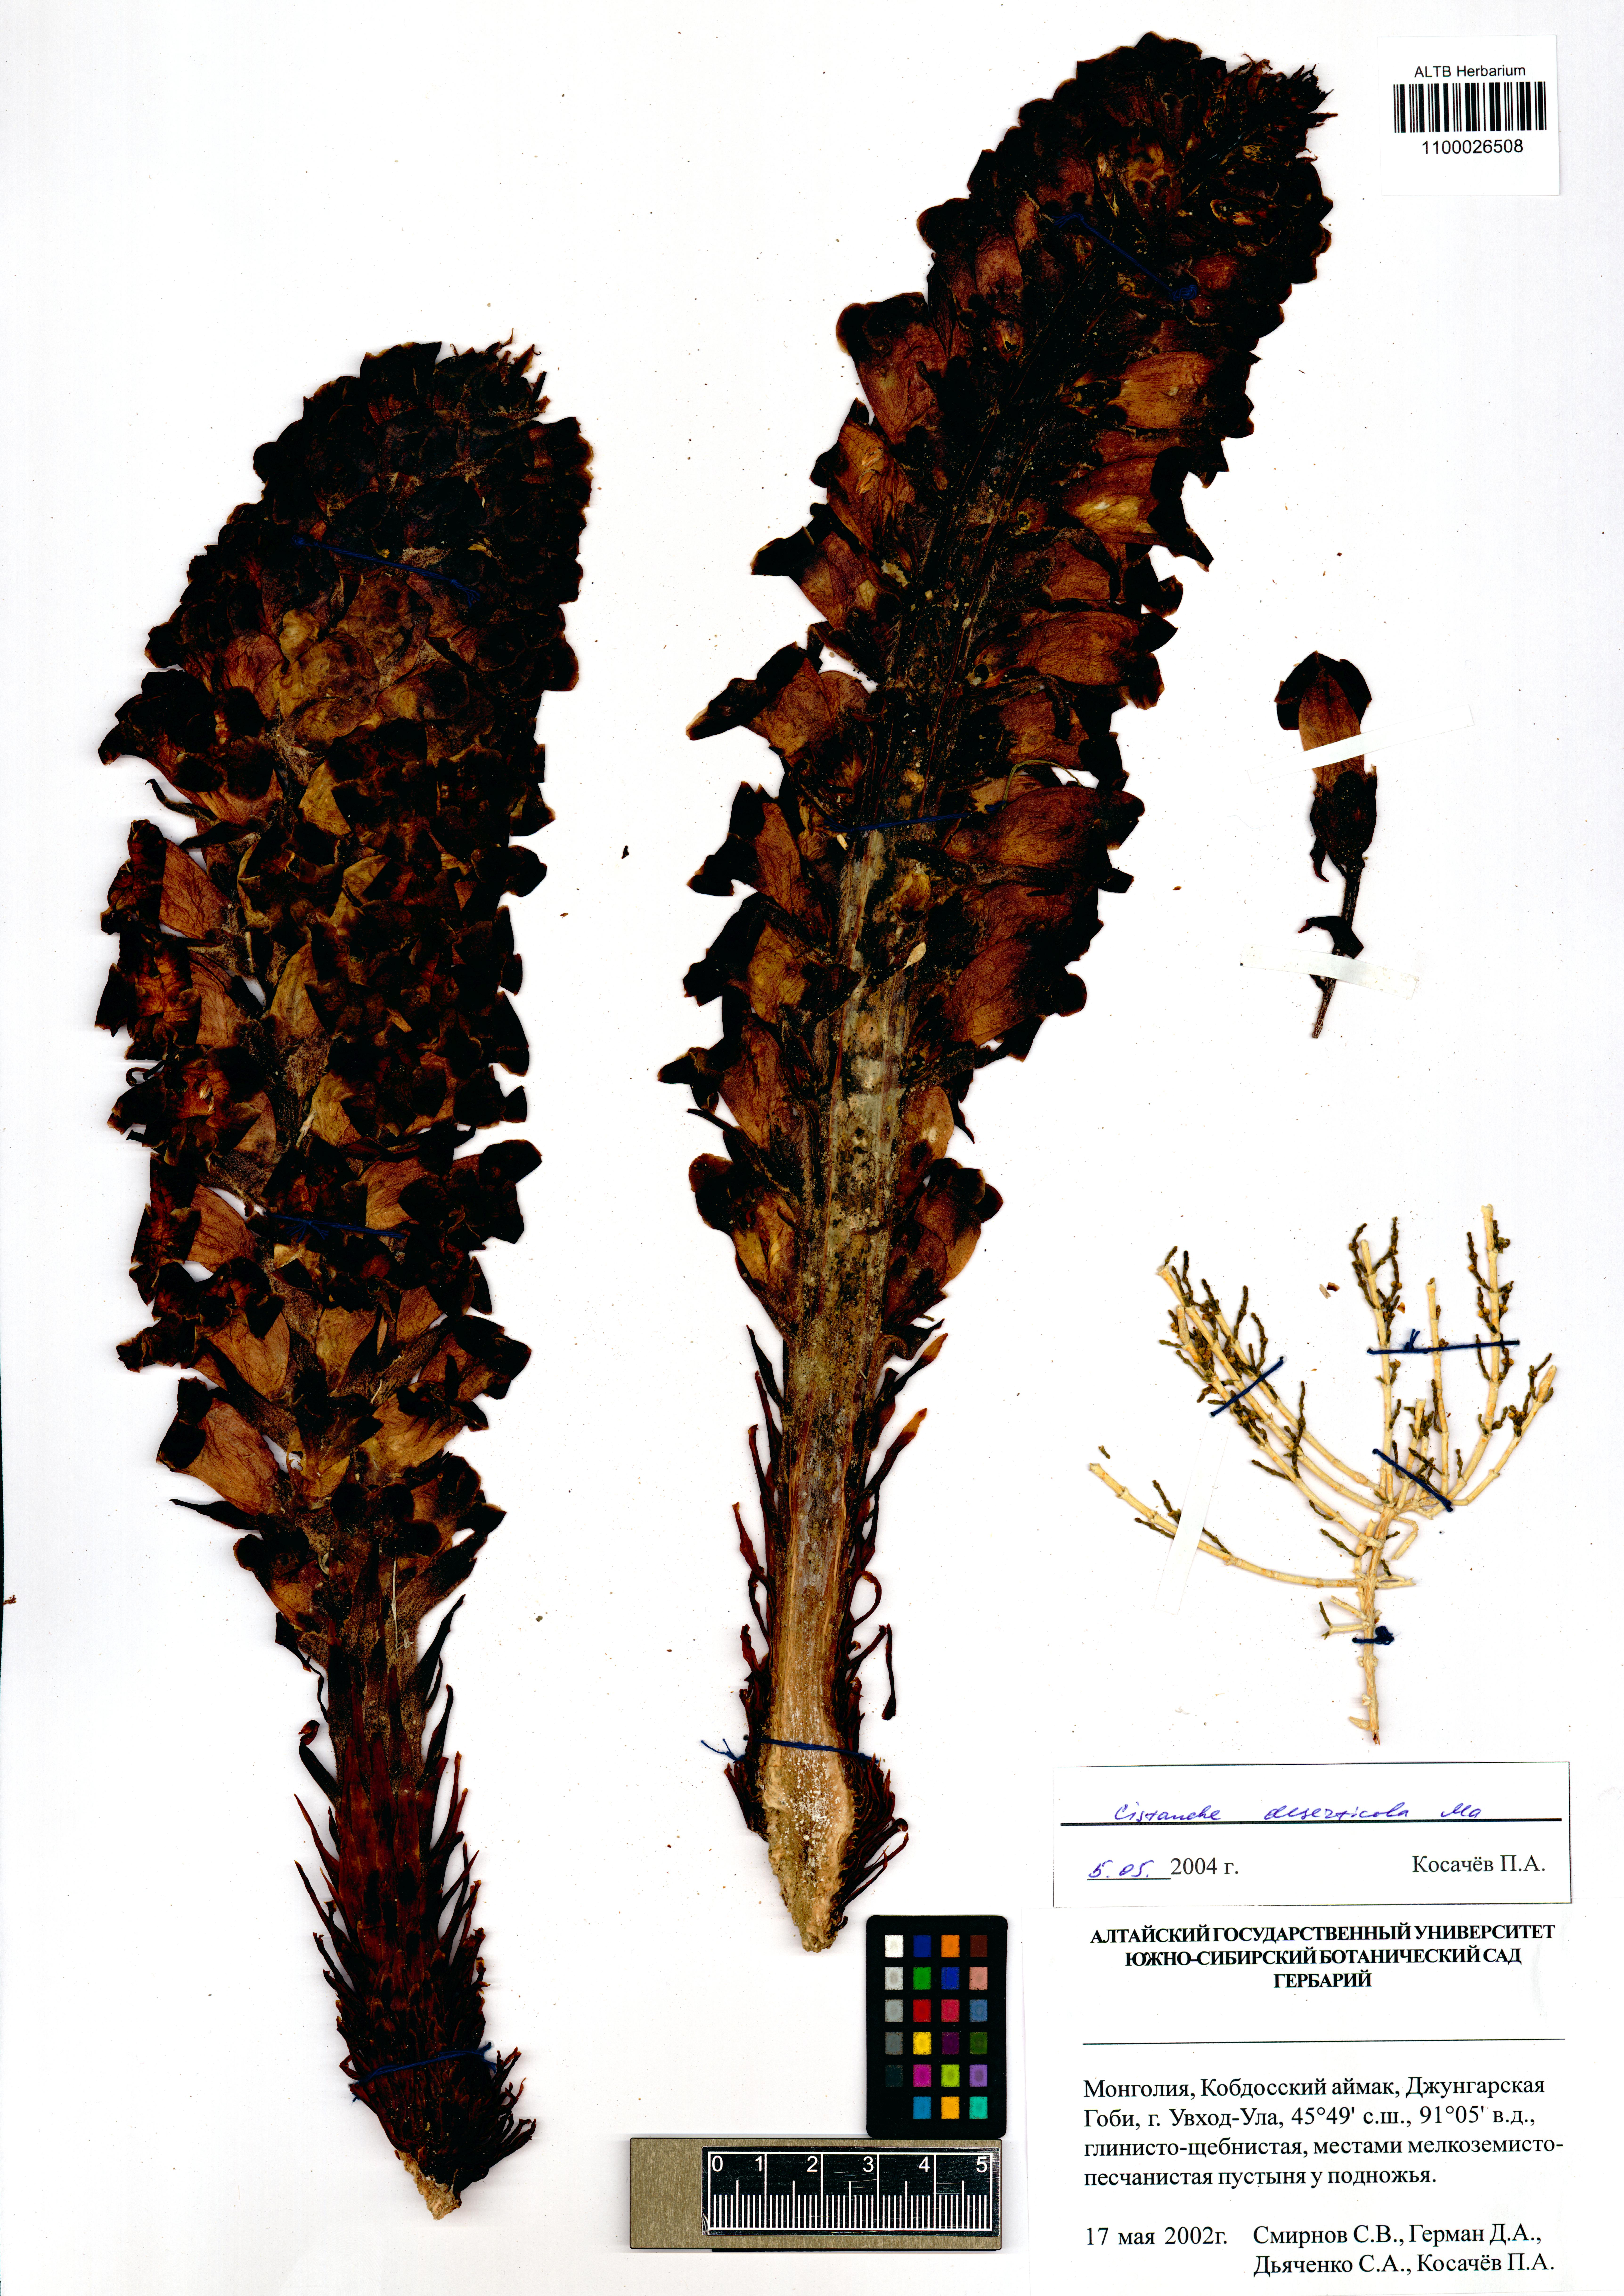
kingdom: Plantae
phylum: Tracheophyta
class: Magnoliopsida
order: Lamiales
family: Orobanchaceae
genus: Cistanche
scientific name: Cistanche deserticola
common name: Desert-broomrape
